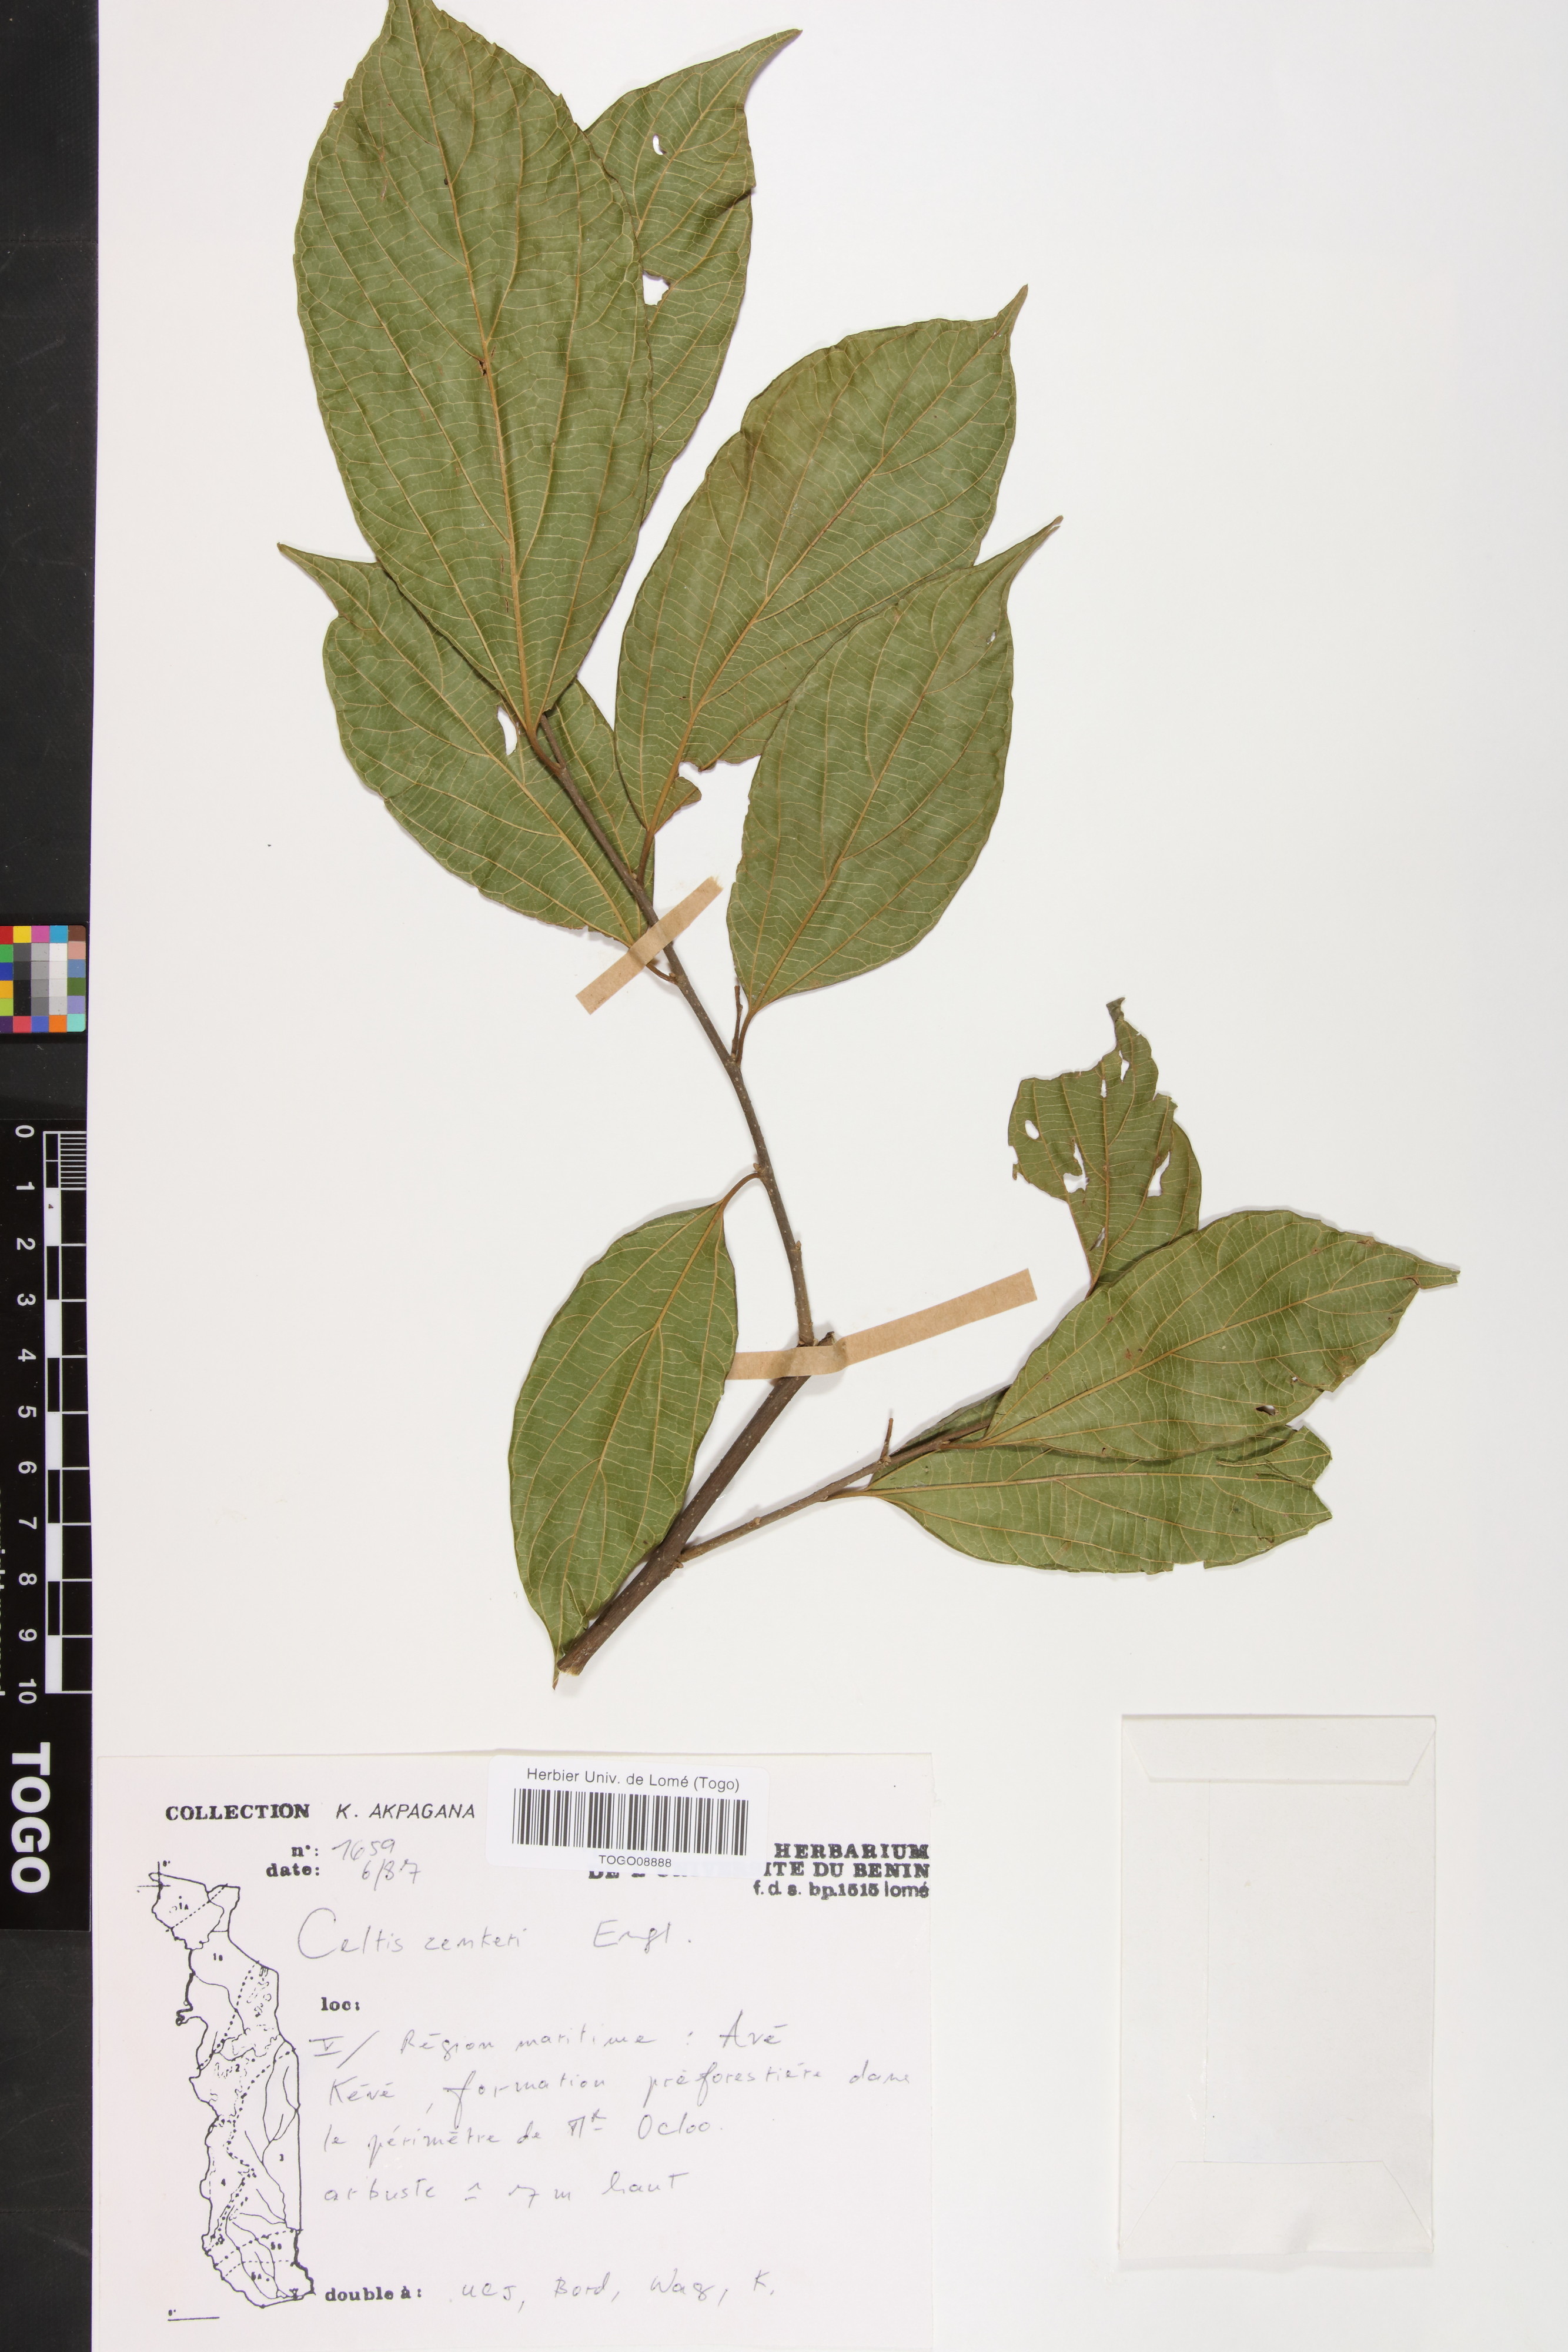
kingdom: Plantae
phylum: Tracheophyta
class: Magnoliopsida
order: Rosales
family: Cannabaceae
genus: Celtis
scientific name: Celtis zenkeri
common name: African celtis
